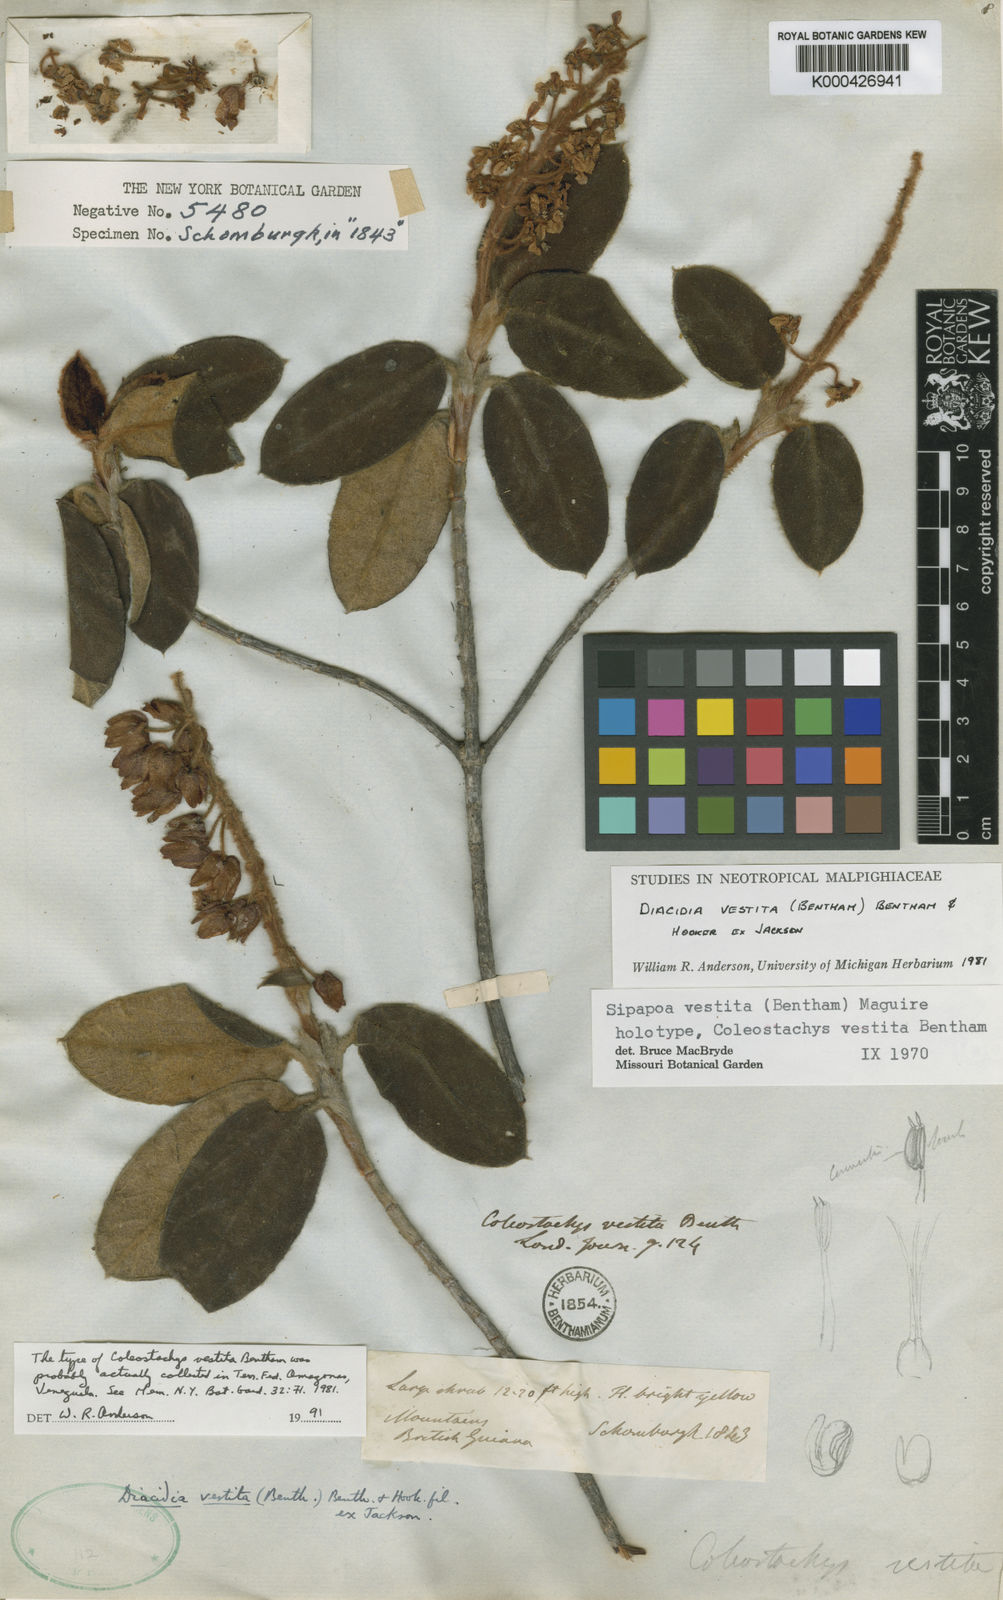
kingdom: Plantae
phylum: Tracheophyta
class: Magnoliopsida
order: Malpighiales
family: Malpighiaceae
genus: Diacidia
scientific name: Diacidia vestita
